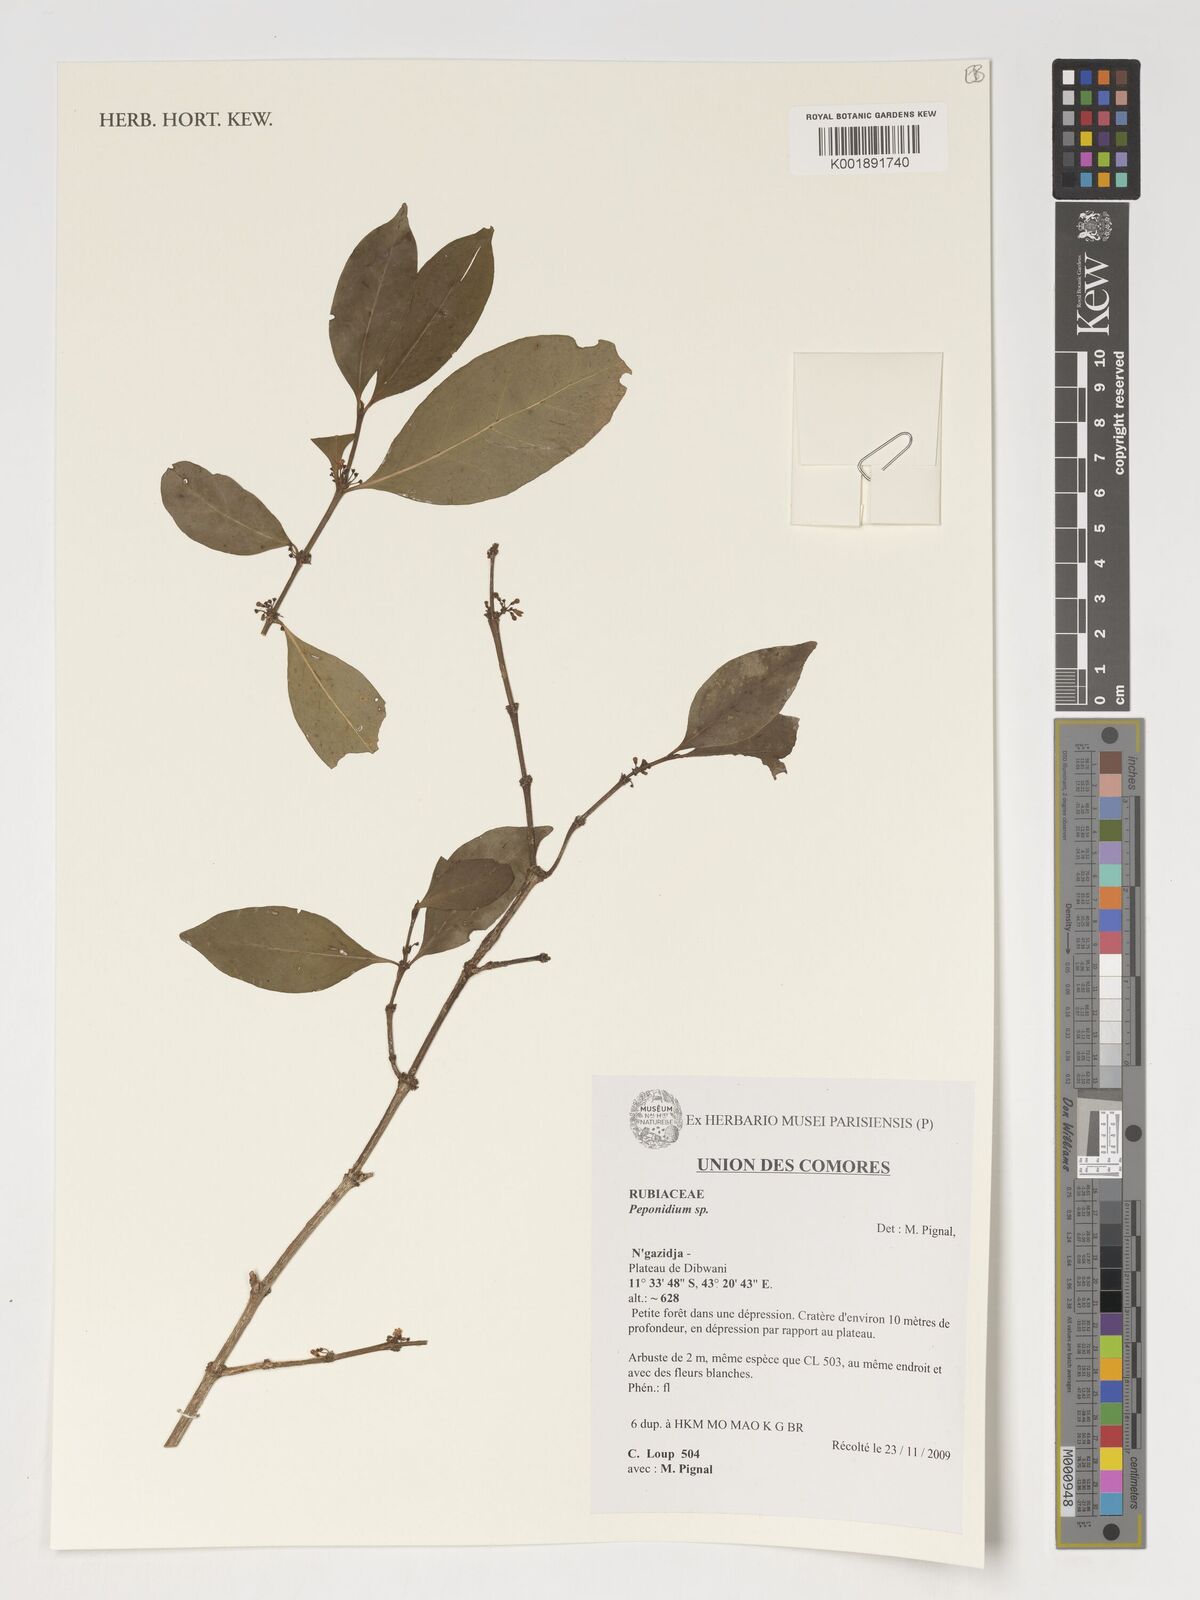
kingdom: Plantae
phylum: Tracheophyta
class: Magnoliopsida
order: Gentianales
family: Rubiaceae
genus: Peponidium
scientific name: Peponidium
